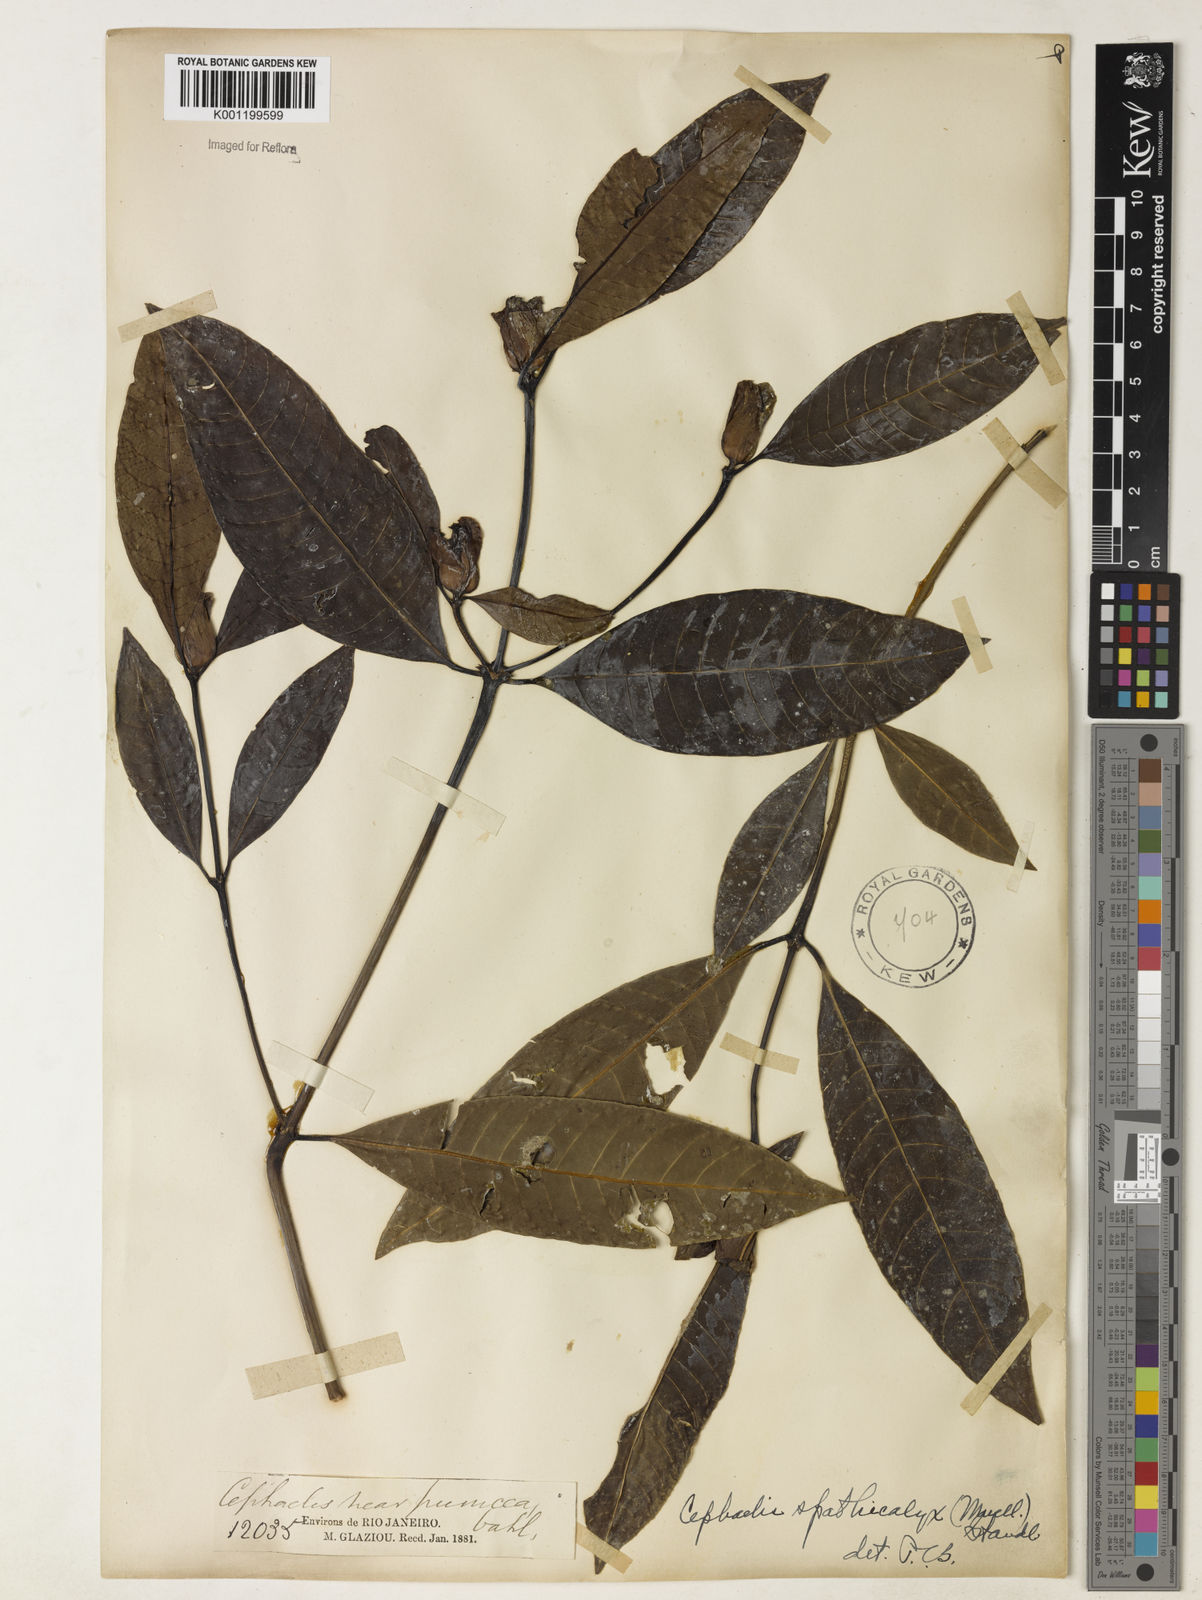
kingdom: Plantae
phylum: Tracheophyta
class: Magnoliopsida
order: Gentianales
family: Rubiaceae
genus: Psychotria
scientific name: Psychotria
